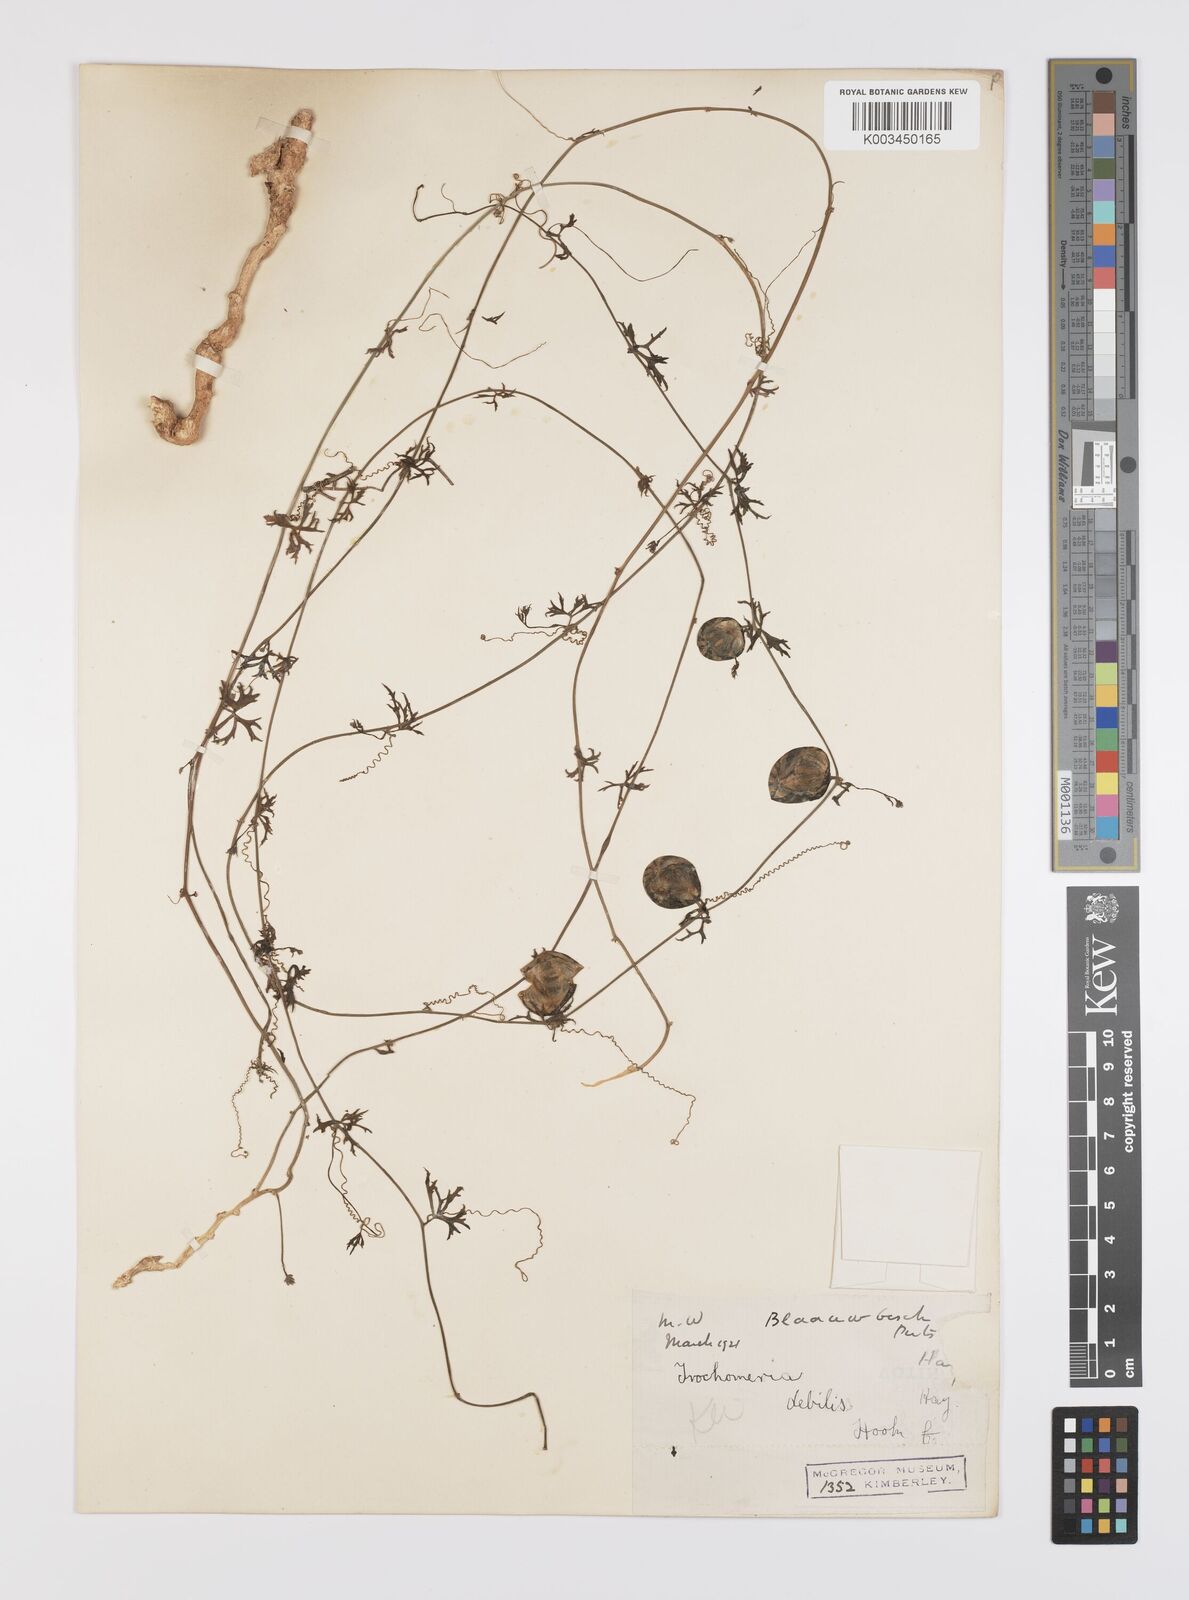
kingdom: Plantae
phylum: Tracheophyta
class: Magnoliopsida
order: Cucurbitales
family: Cucurbitaceae
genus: Trochomeria
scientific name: Trochomeria debilis
